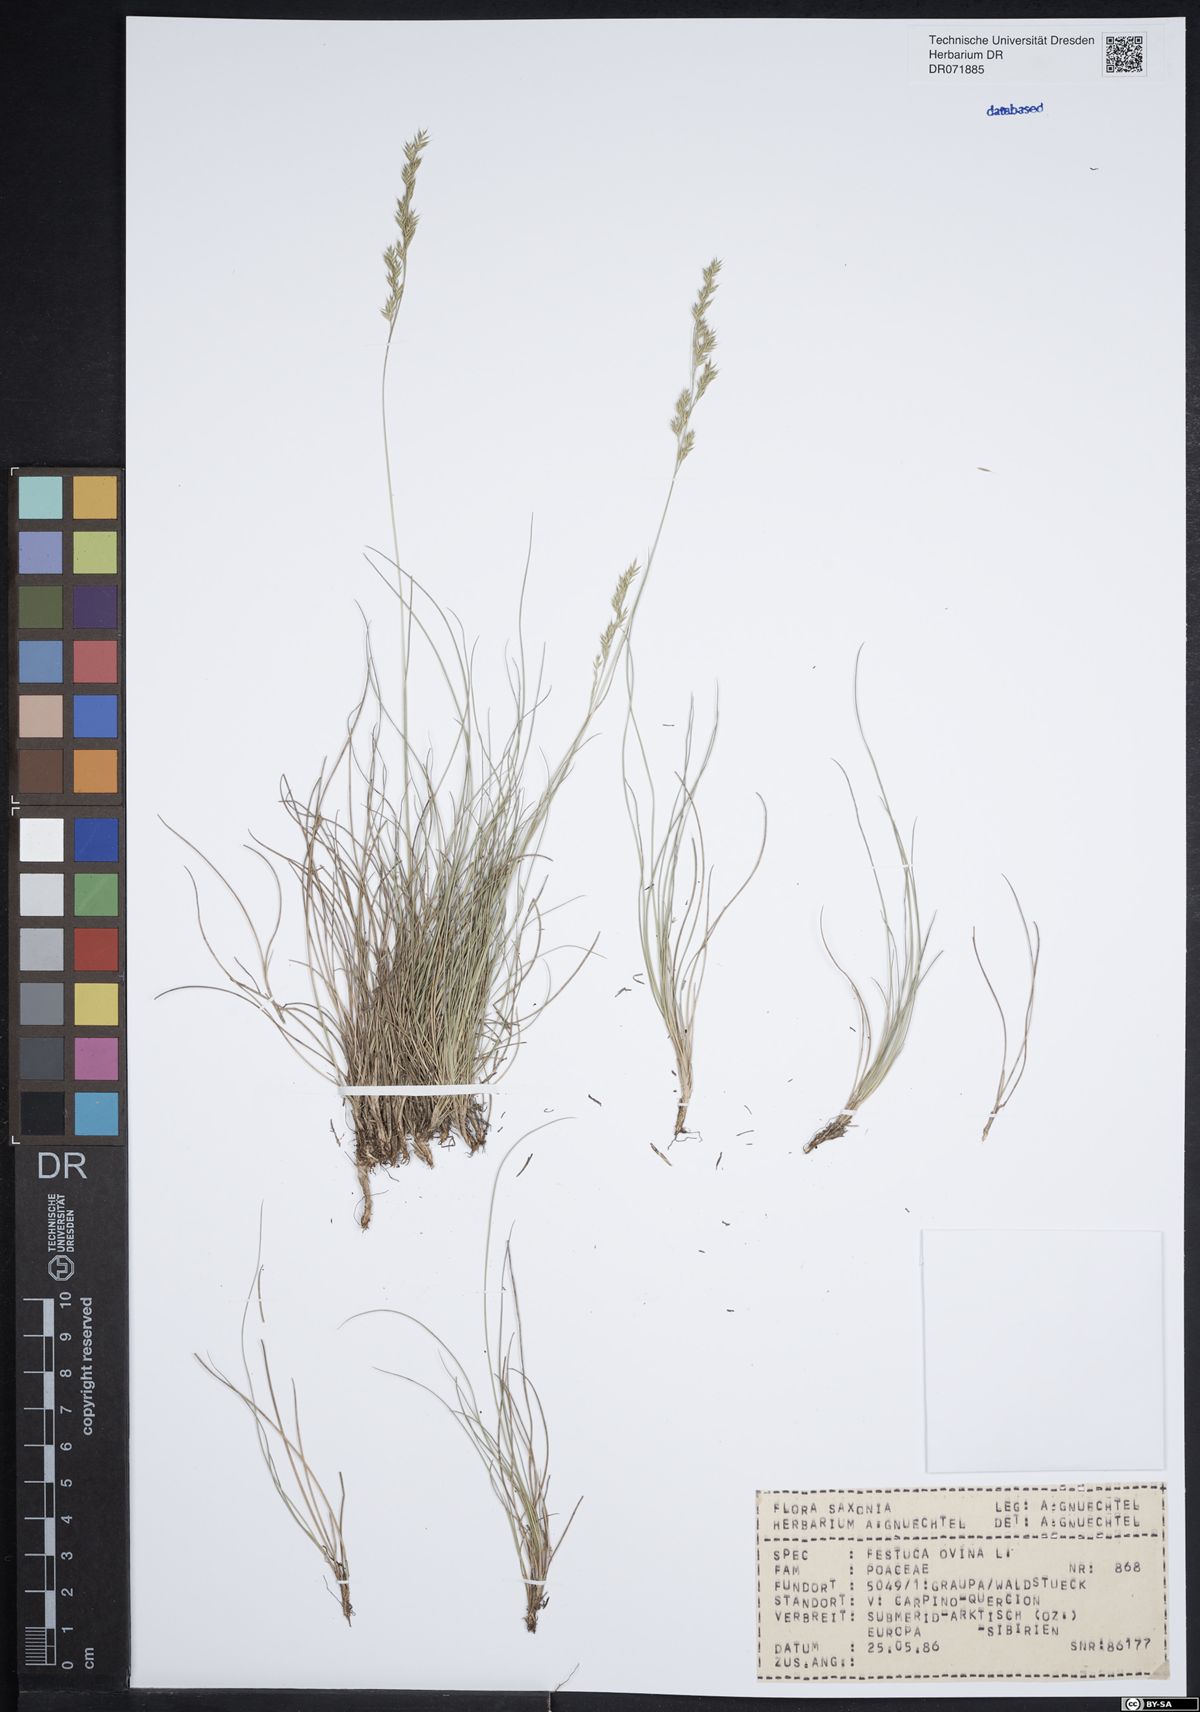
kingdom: Plantae
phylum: Tracheophyta
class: Liliopsida
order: Poales
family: Poaceae
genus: Festuca
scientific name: Festuca ovina
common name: Sheep fescue
